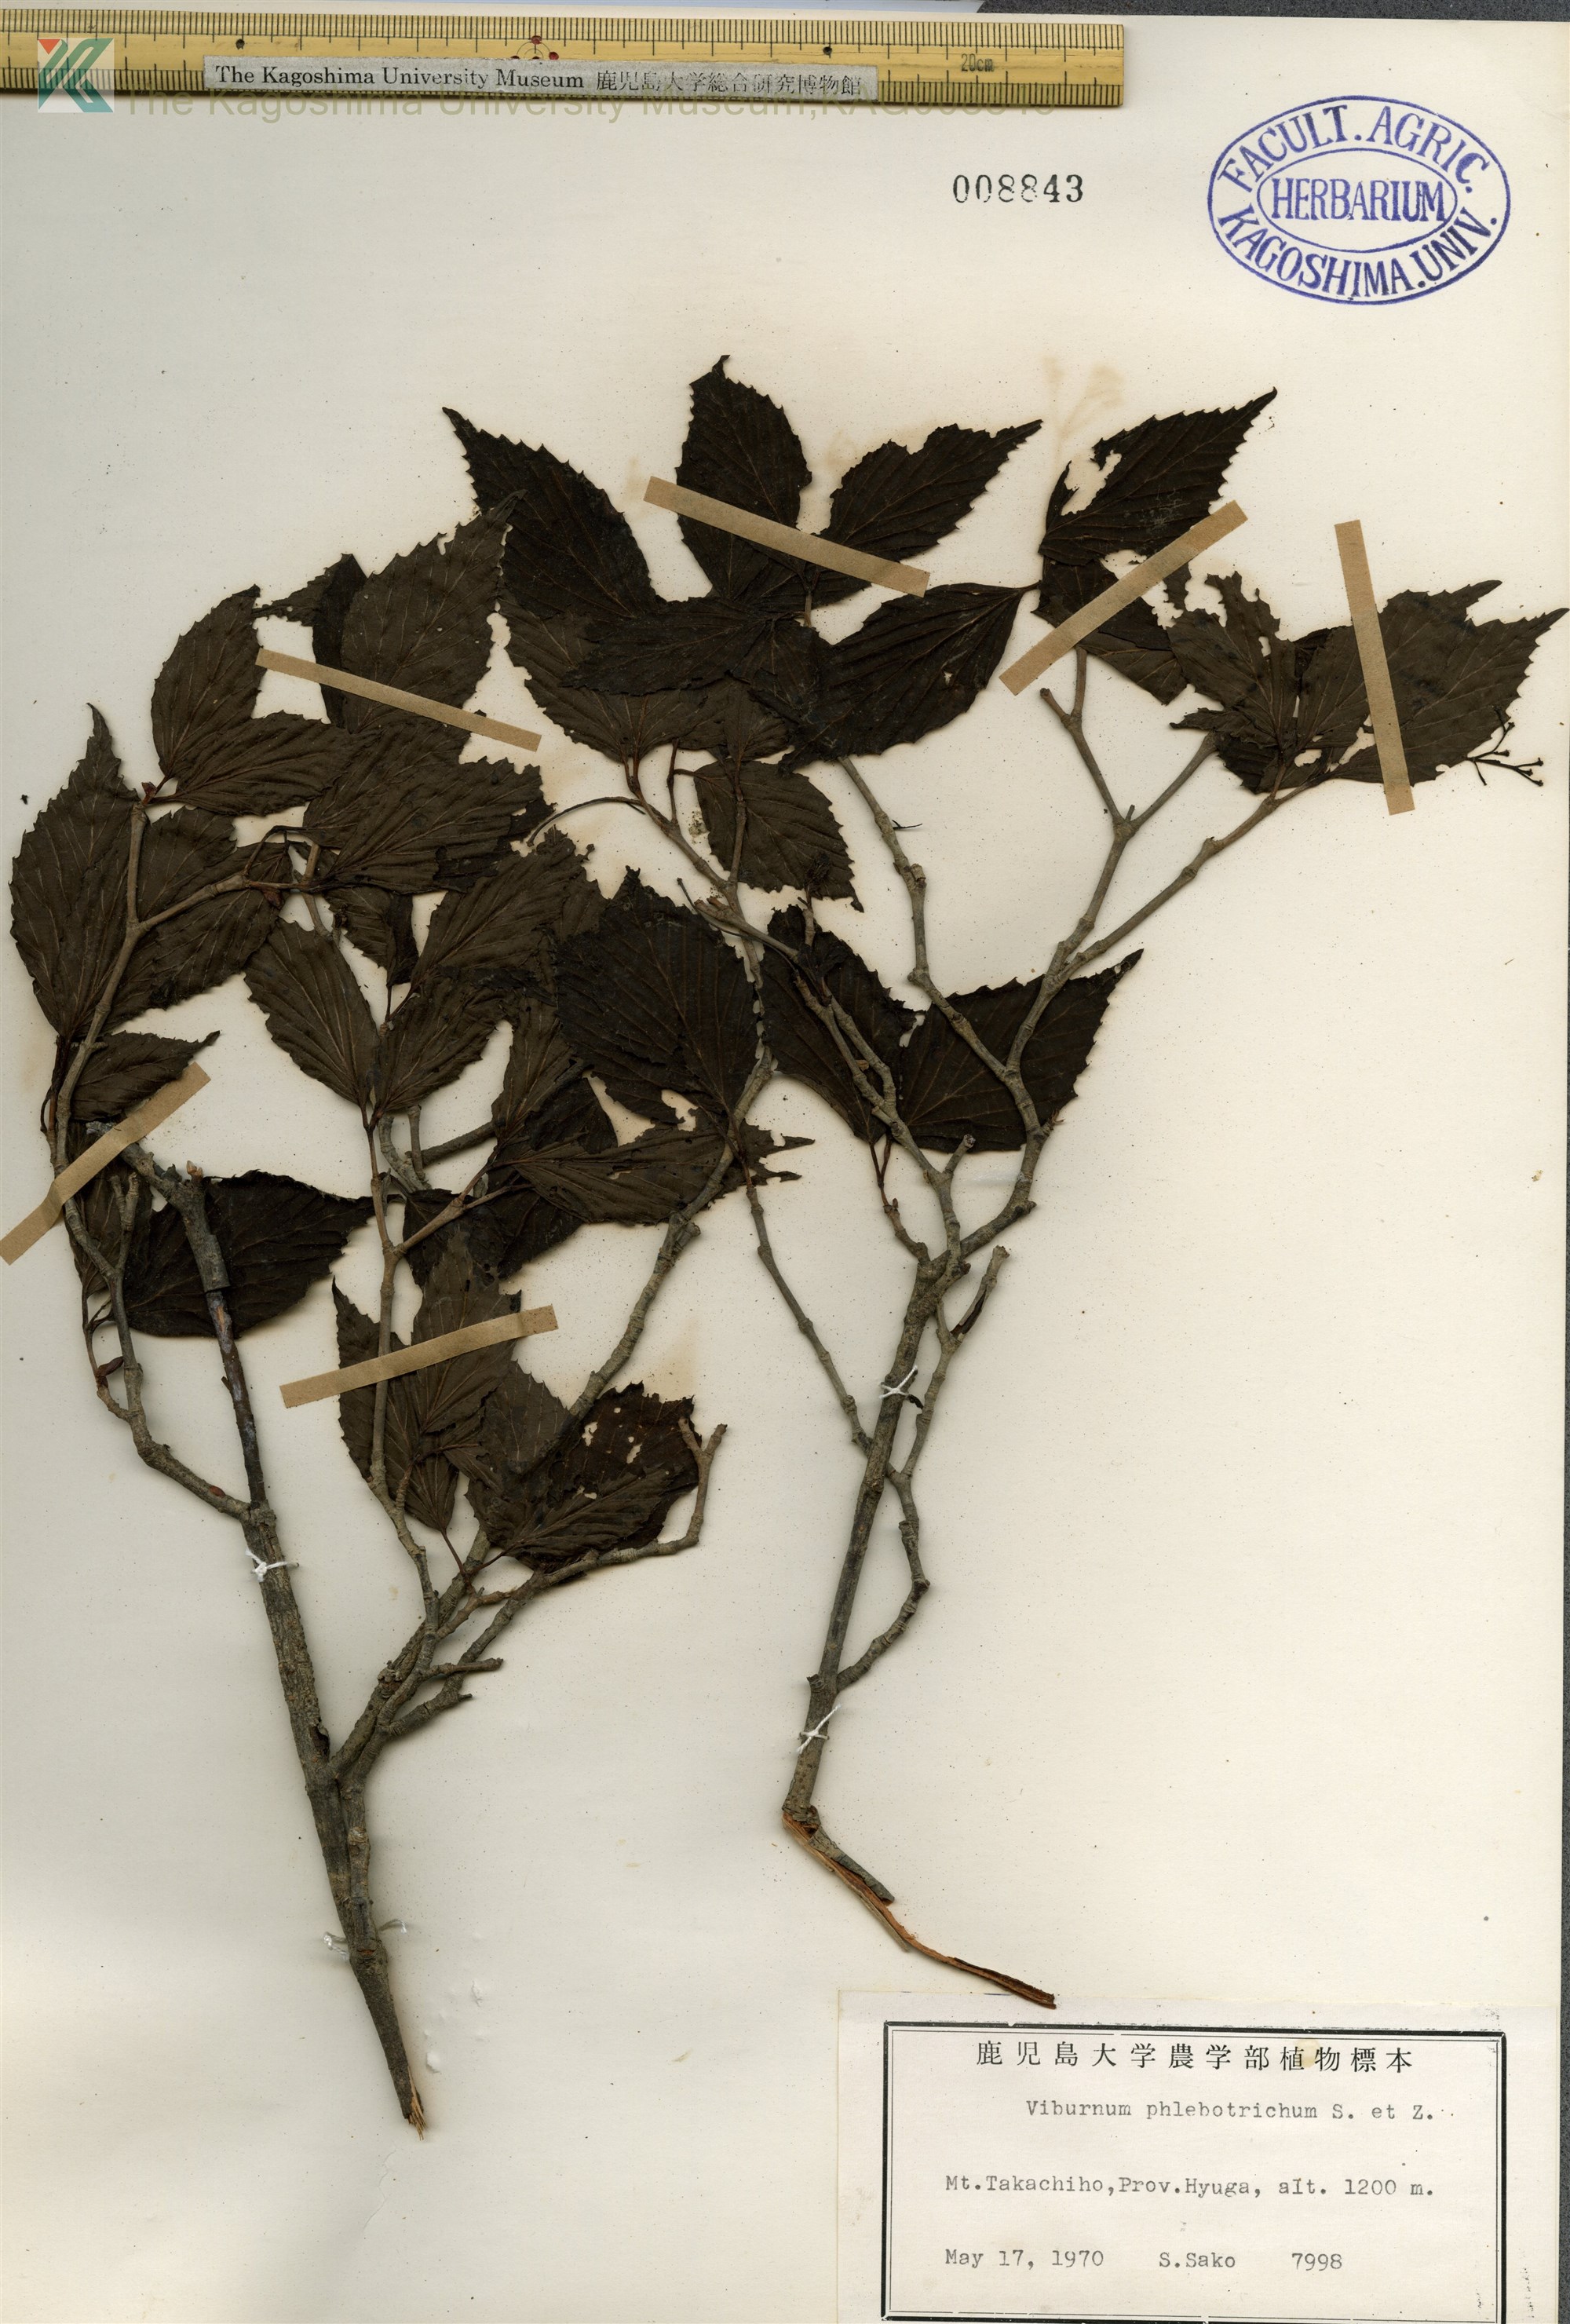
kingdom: Plantae
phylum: Tracheophyta
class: Magnoliopsida
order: Dipsacales
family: Viburnaceae
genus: Viburnum
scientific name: Viburnum phlebotrichum
